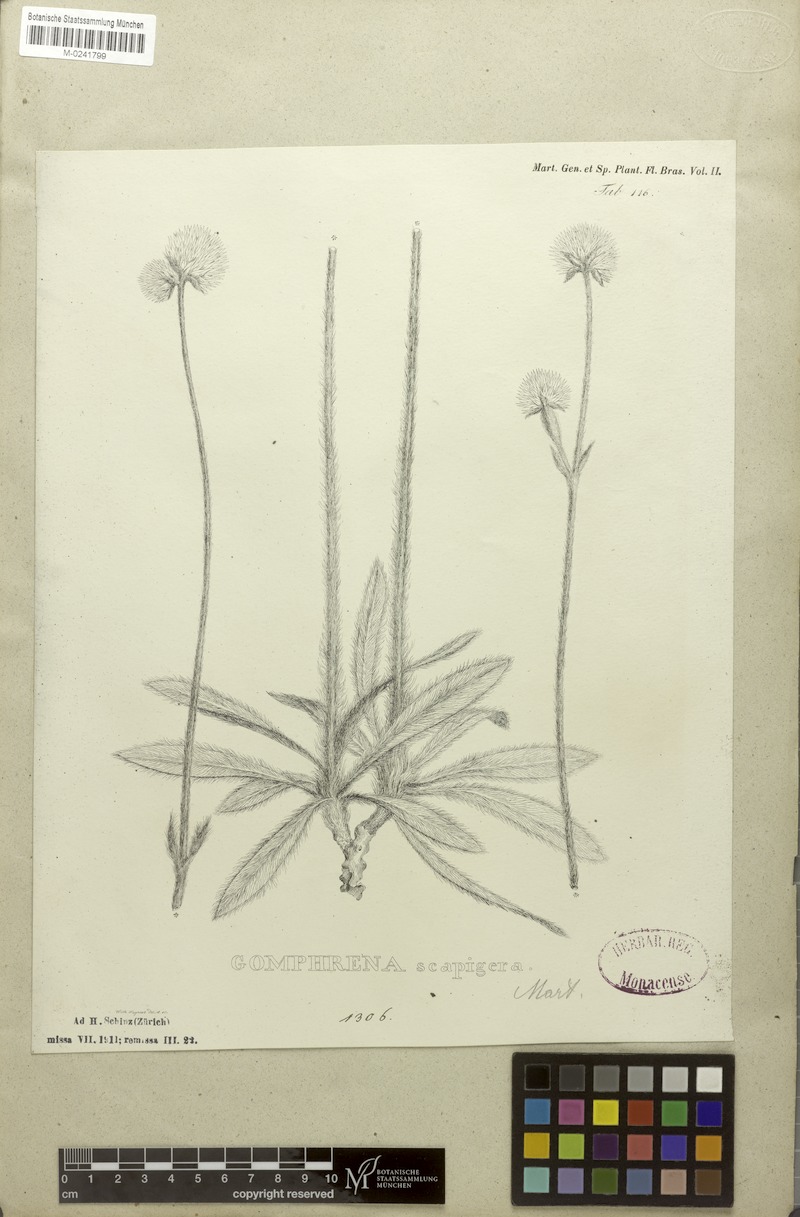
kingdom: Plantae
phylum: Tracheophyta
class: Magnoliopsida
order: Caryophyllales
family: Amaranthaceae
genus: Gomphrena
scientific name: Gomphrena scapigera
